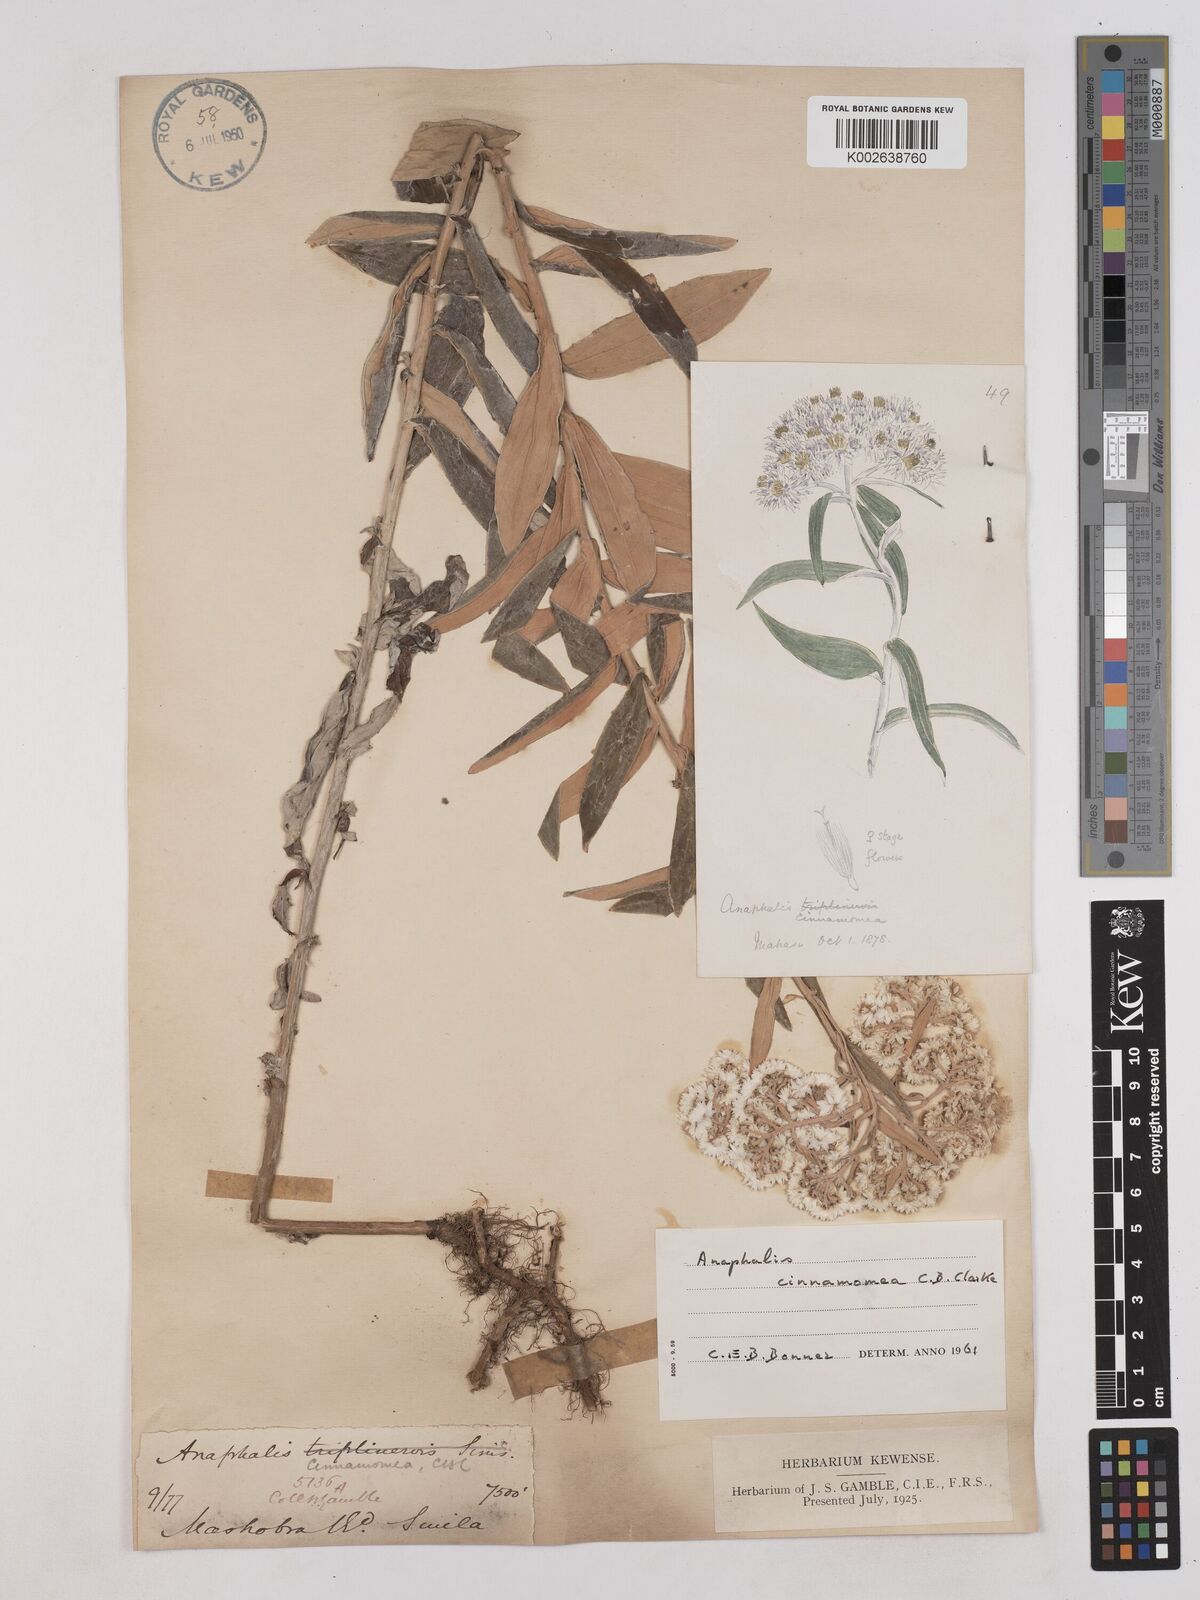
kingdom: Plantae
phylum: Tracheophyta
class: Magnoliopsida
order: Asterales
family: Asteraceae
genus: Anaphalis
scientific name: Anaphalis marcescens
